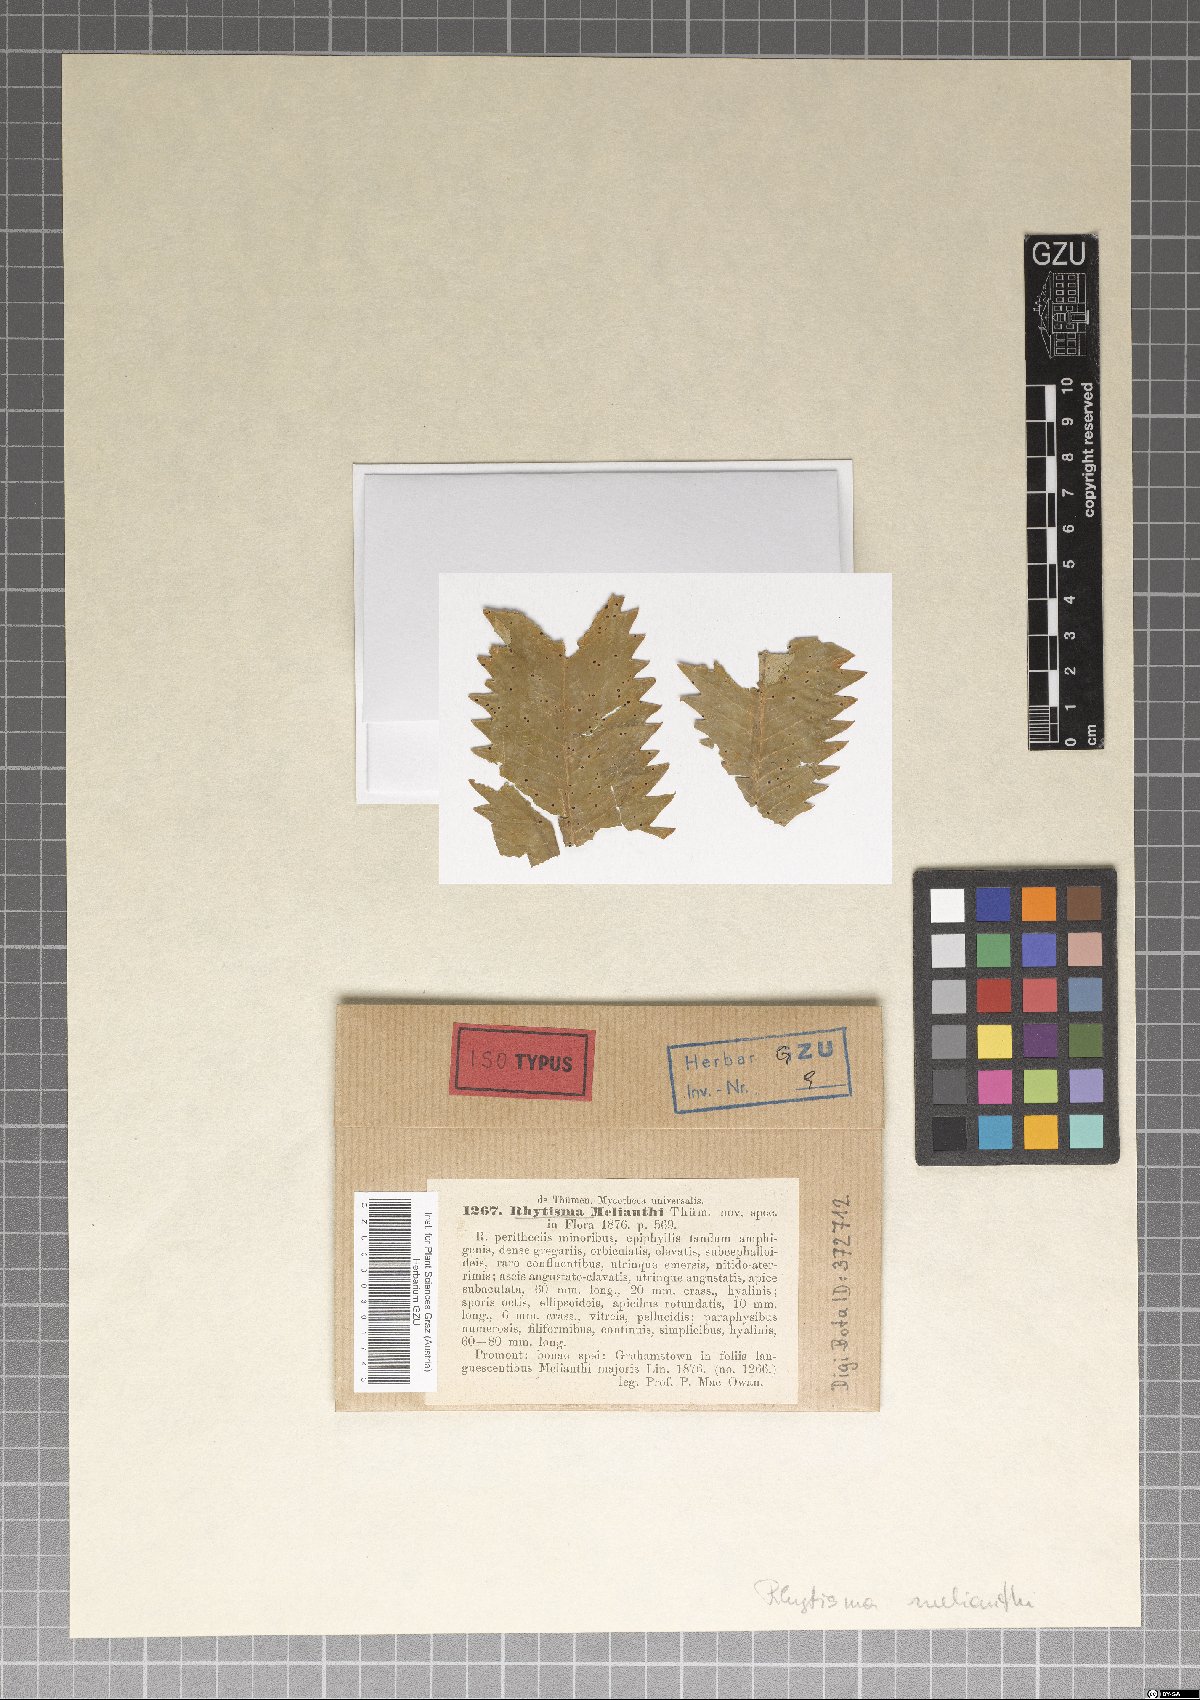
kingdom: Fungi
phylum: Ascomycota
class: Sordariomycetes
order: Phyllachorales
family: Phyllachoraceae
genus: Phyllachora
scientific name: Phyllachora melianthi
